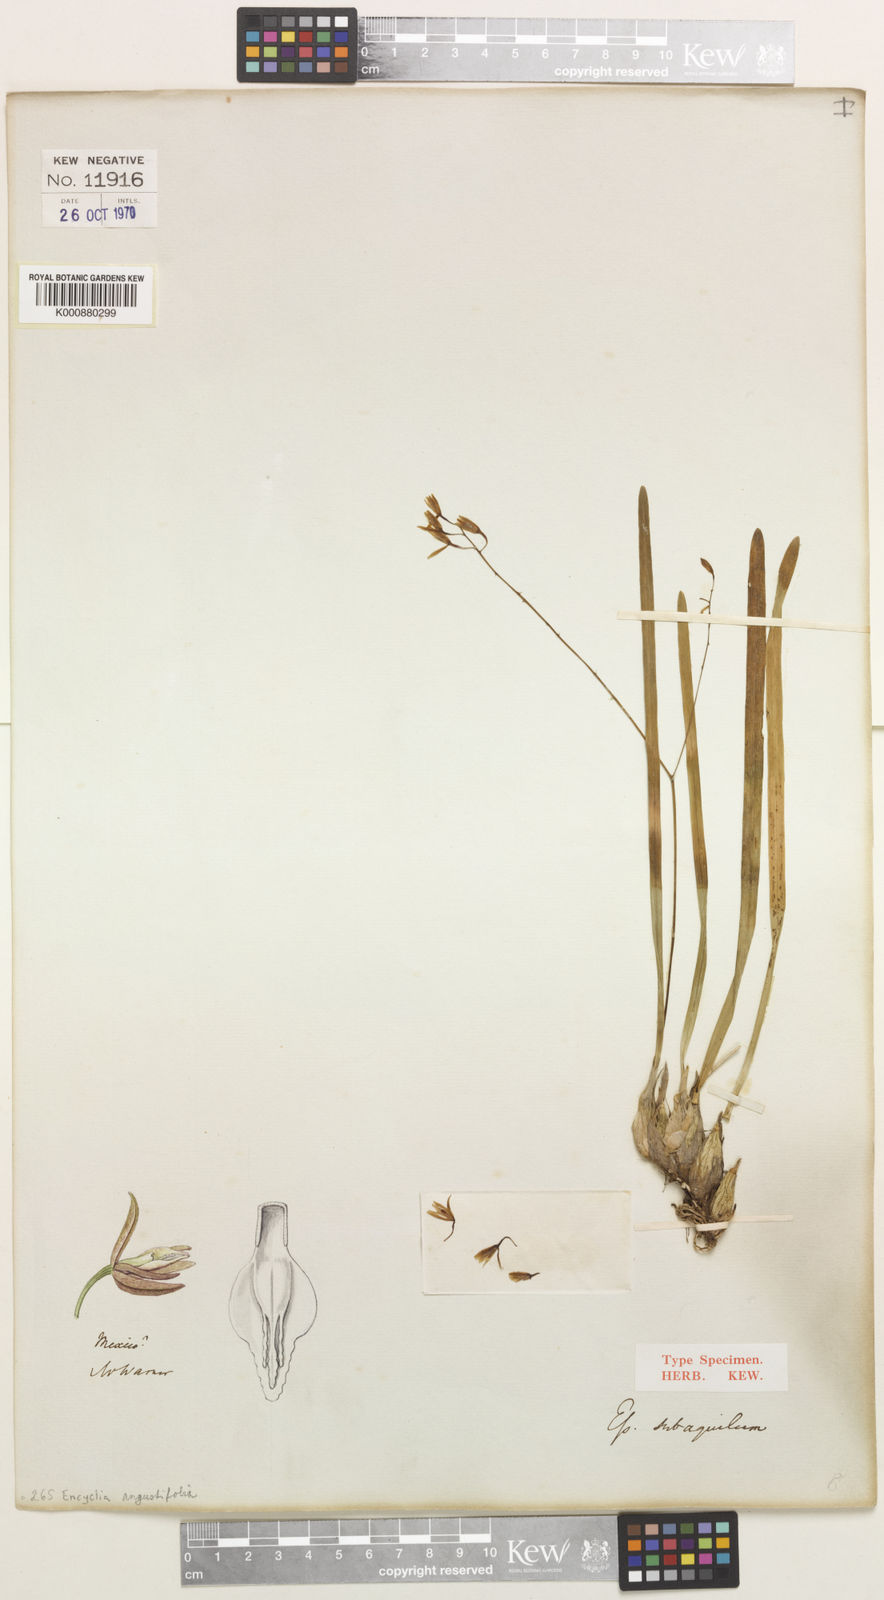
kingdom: Plantae
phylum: Tracheophyta
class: Liliopsida
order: Asparagales
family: Orchidaceae
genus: Encyclia
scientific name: Encyclia angustifolia
